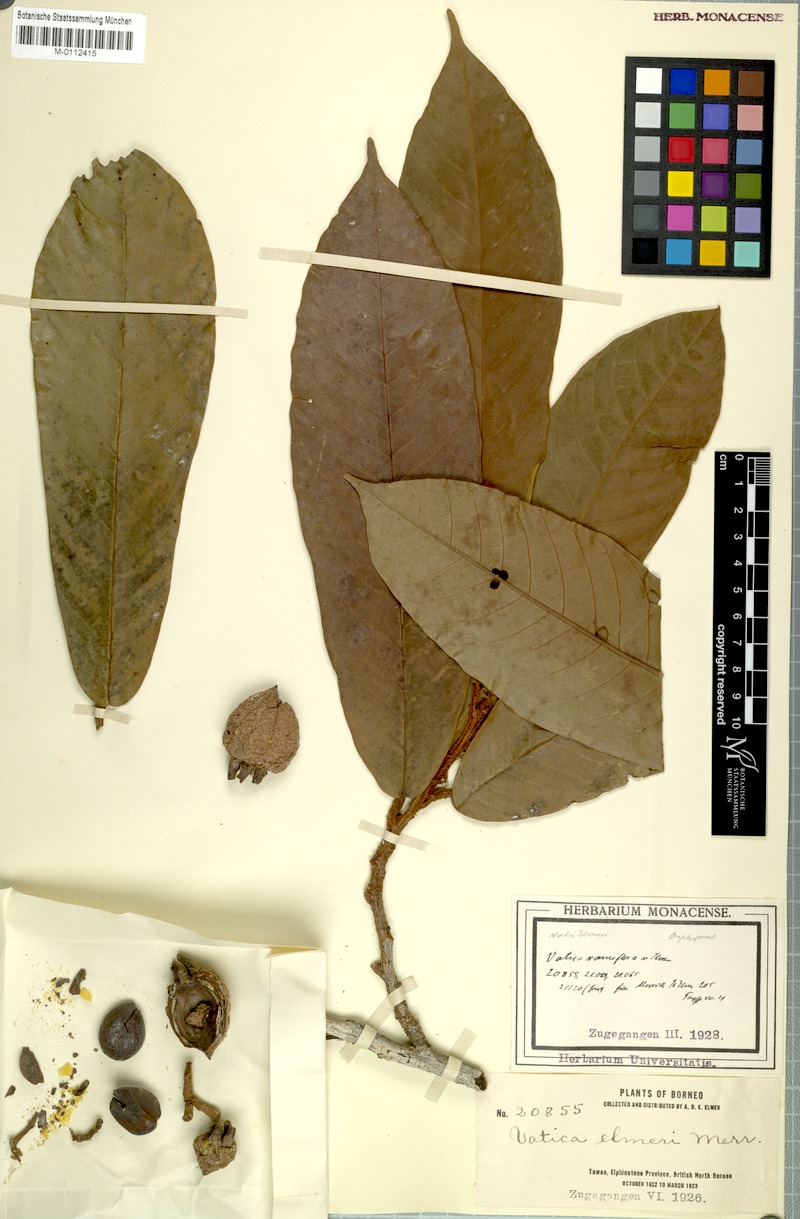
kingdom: Plantae
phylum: Tracheophyta
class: Magnoliopsida
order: Malvales
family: Dipterocarpaceae
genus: Vatica
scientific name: Vatica
